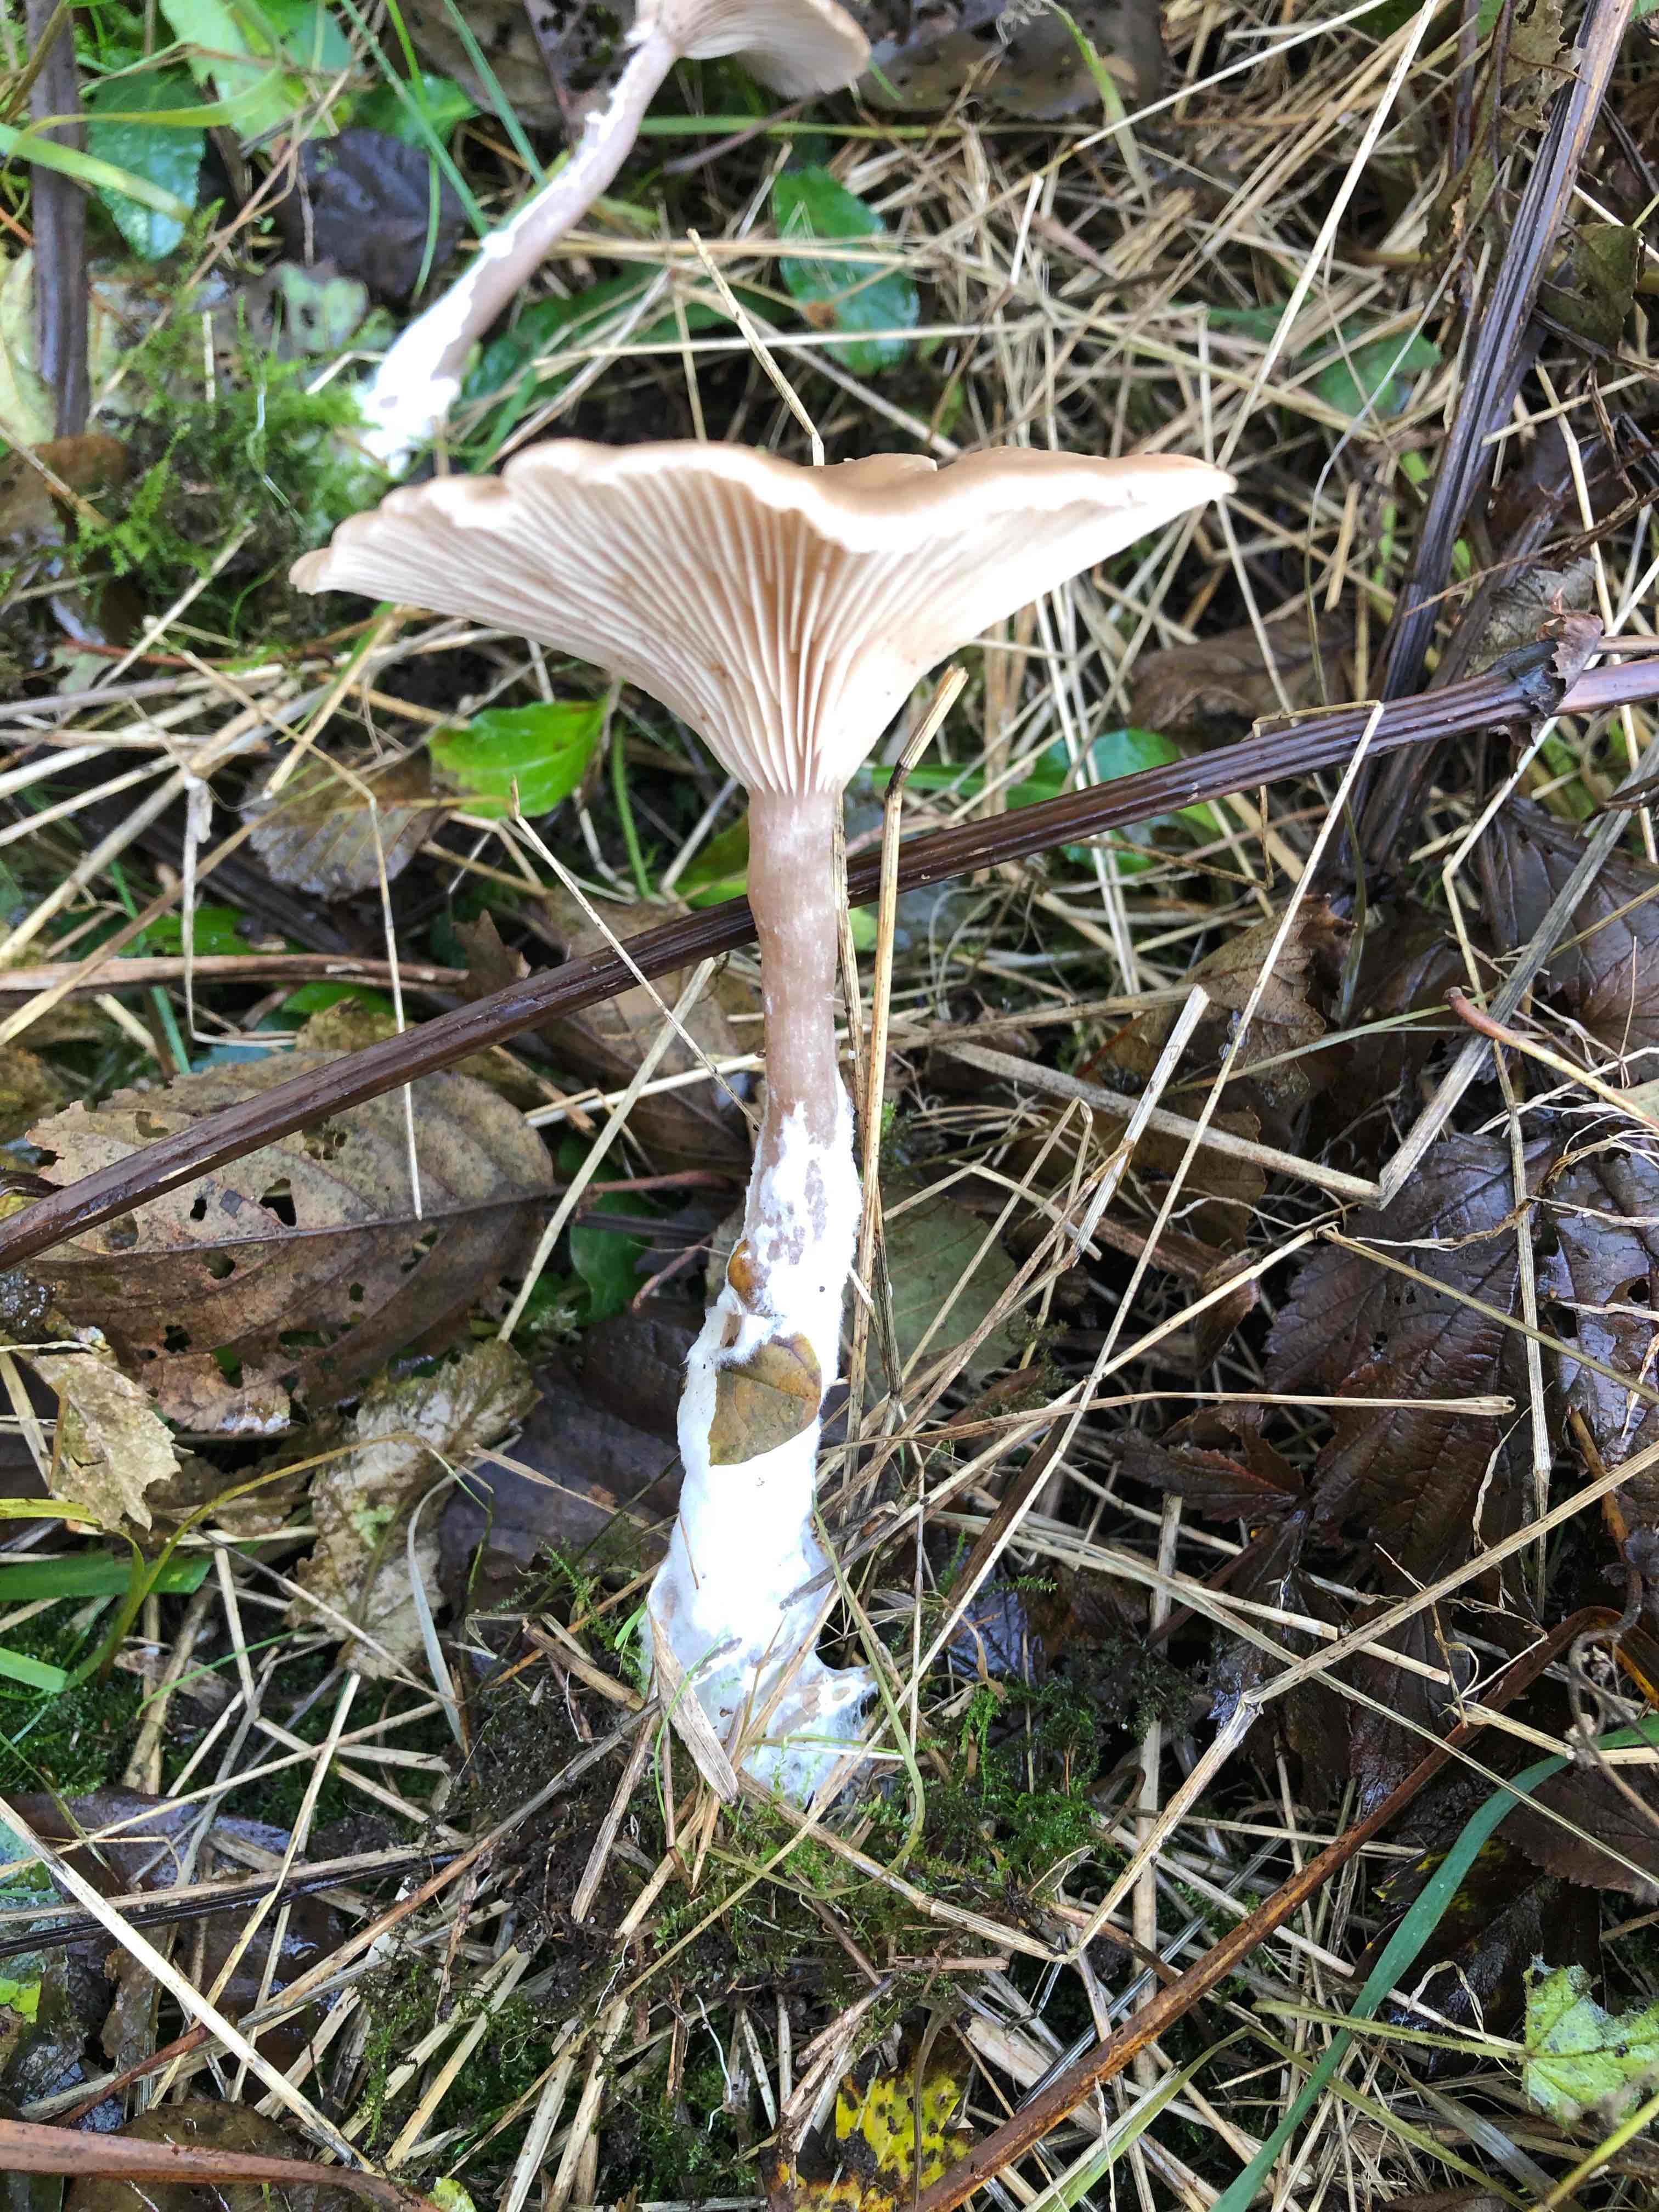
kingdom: Fungi
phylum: Basidiomycota
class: Agaricomycetes
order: Agaricales
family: Pseudoclitocybaceae
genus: Pseudoclitocybe
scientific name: Pseudoclitocybe cyathiformis
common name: almindelig bægertragthat
